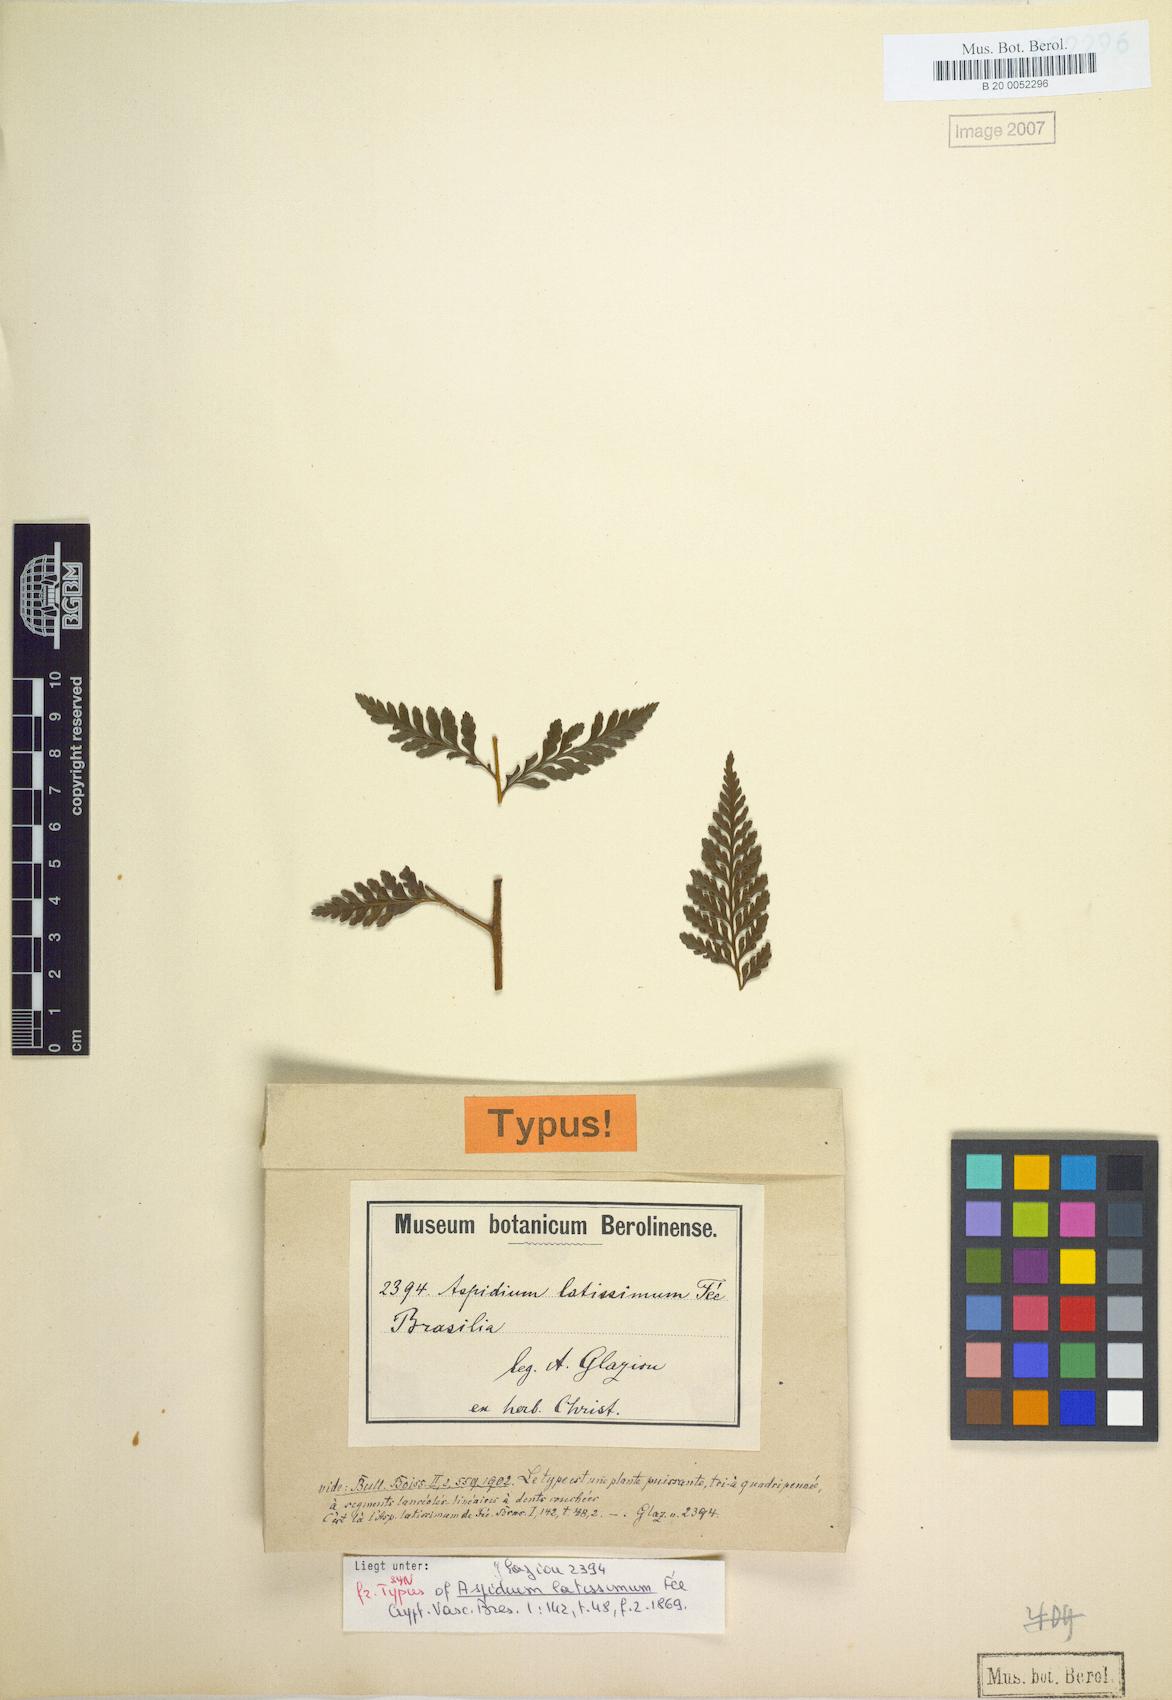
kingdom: Plantae
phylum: Tracheophyta
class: Polypodiopsida
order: Polypodiales
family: Dryopteridaceae
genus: Lastreopsis
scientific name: Lastreopsis amplissima
